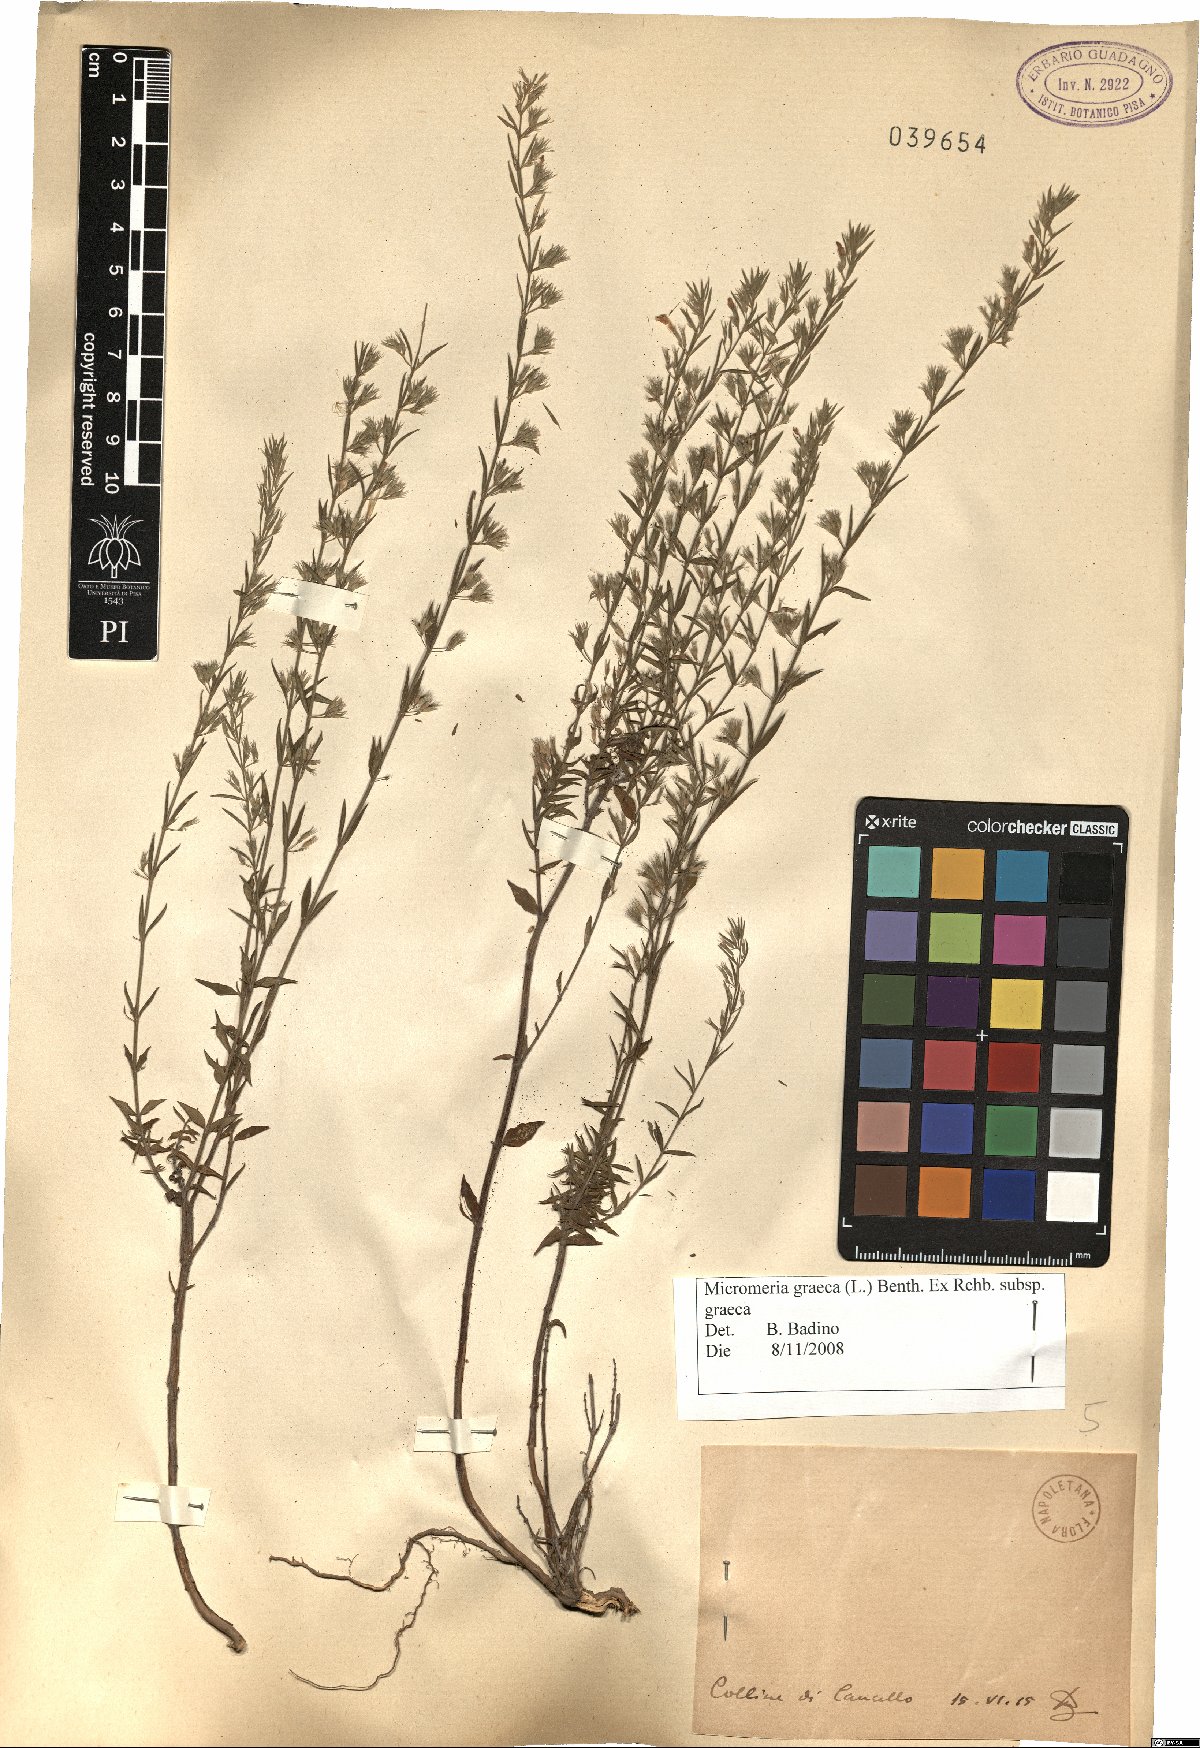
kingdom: Plantae
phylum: Tracheophyta
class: Magnoliopsida
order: Lamiales
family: Lamiaceae
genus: Micromeria
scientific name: Micromeria graeca
